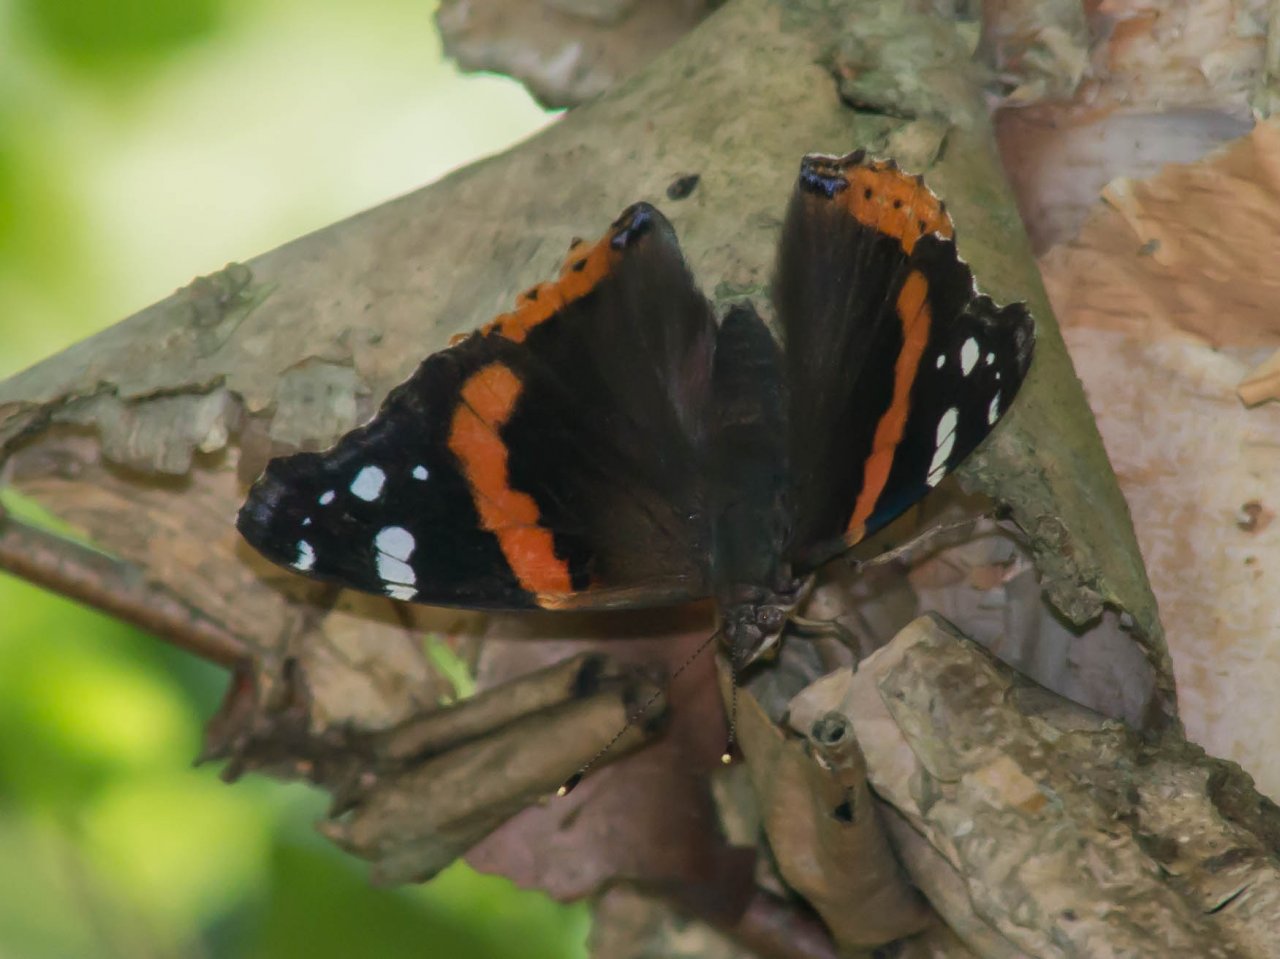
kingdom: Animalia
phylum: Arthropoda
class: Insecta
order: Lepidoptera
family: Nymphalidae
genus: Vanessa
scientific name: Vanessa atalanta
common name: Red Admiral
